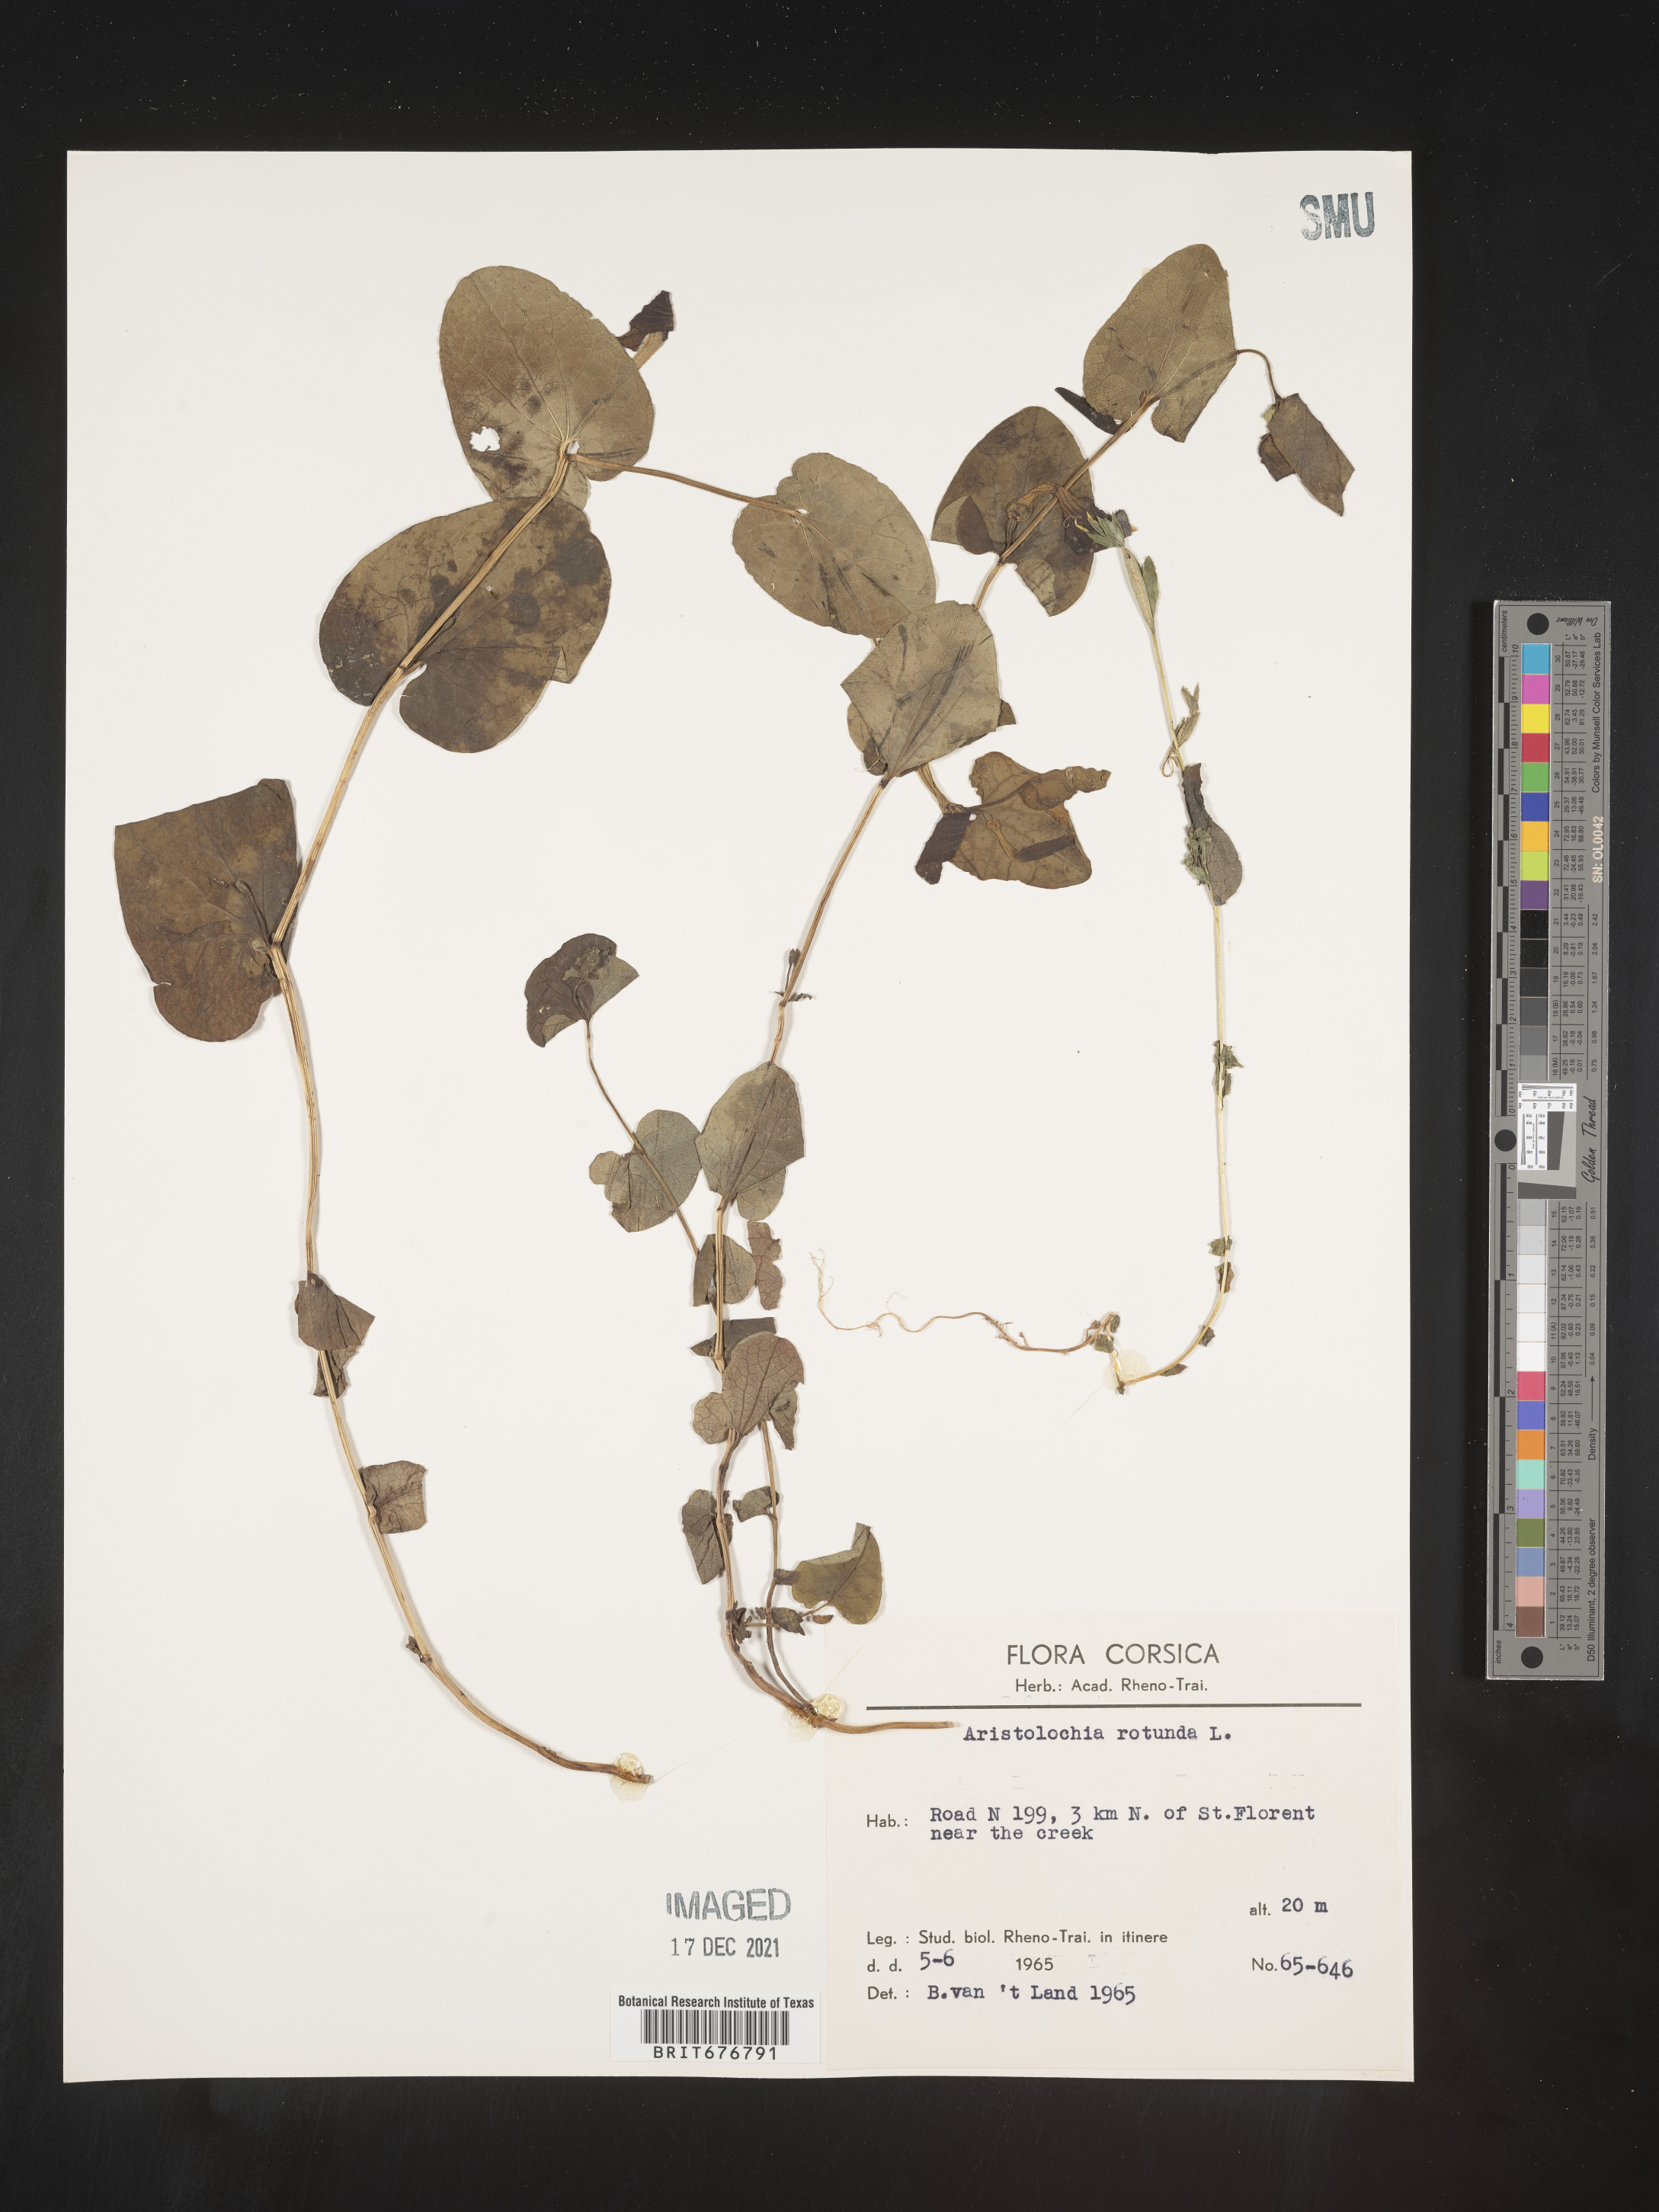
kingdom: Plantae
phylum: Tracheophyta
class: Magnoliopsida
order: Piperales
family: Aristolochiaceae
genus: Aristolochia
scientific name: Aristolochia
